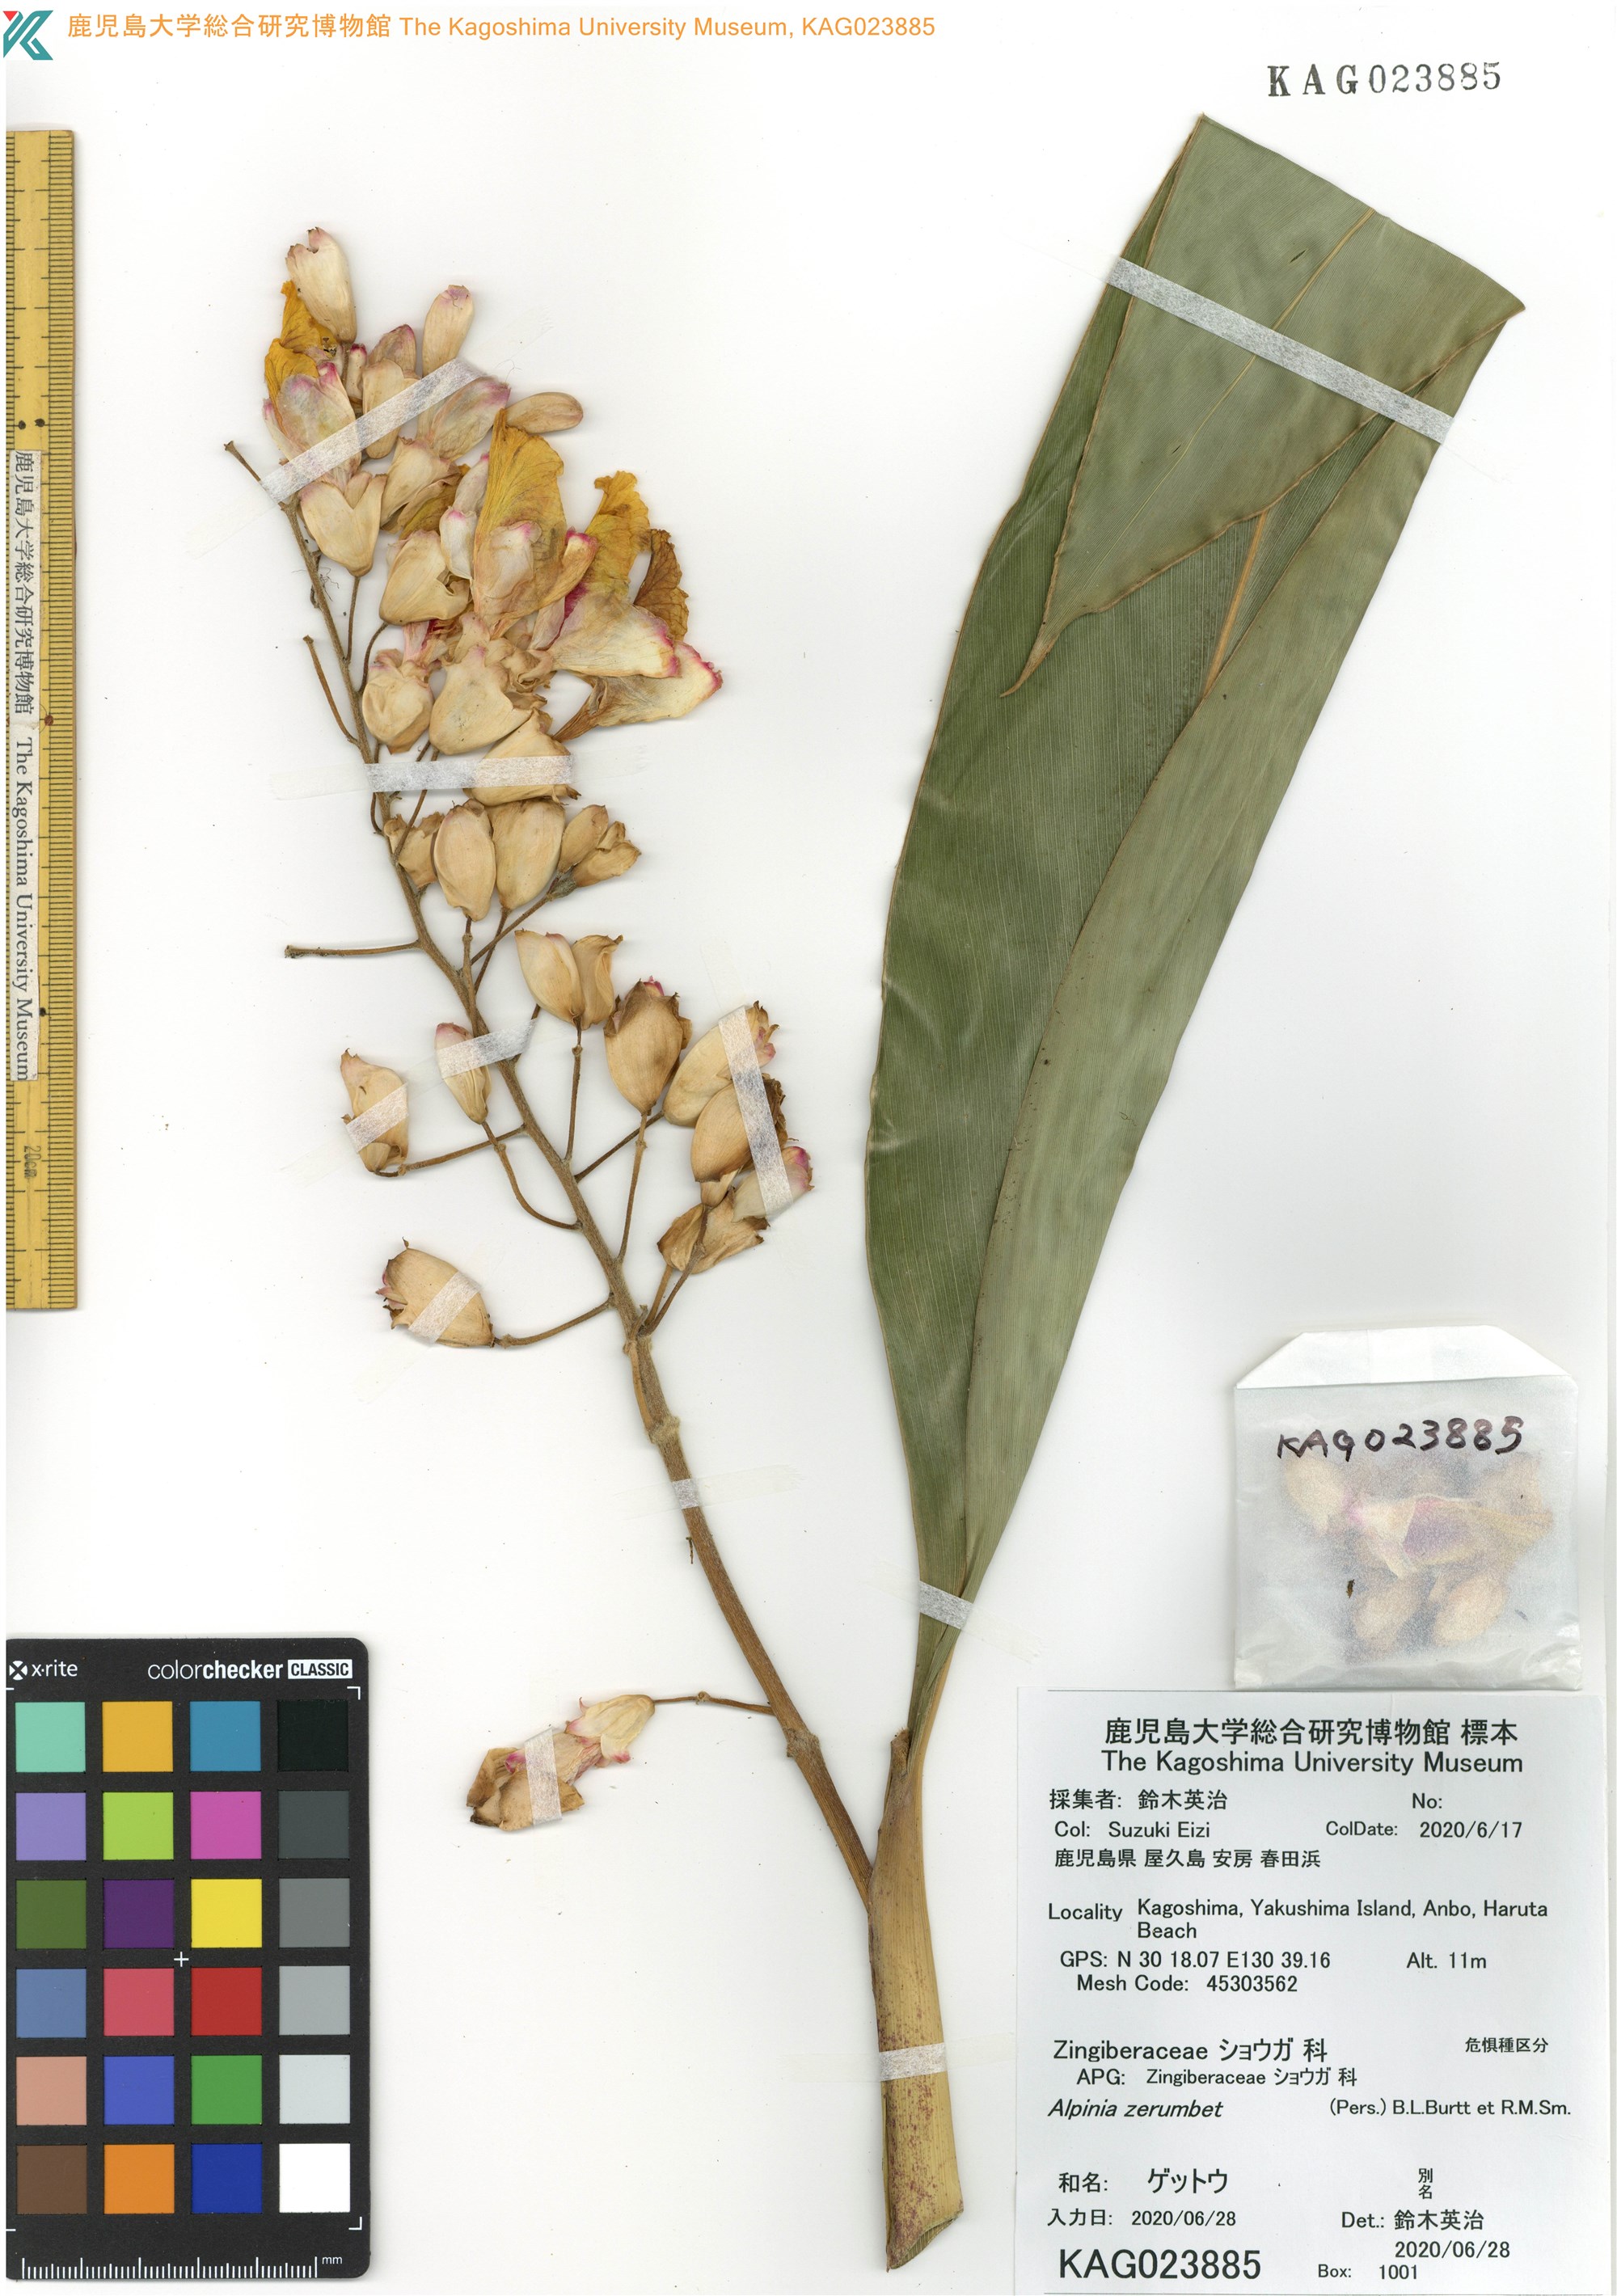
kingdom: Plantae
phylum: Tracheophyta
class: Liliopsida
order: Zingiberales
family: Zingiberaceae
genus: Alpinia
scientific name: Alpinia zerumbet
